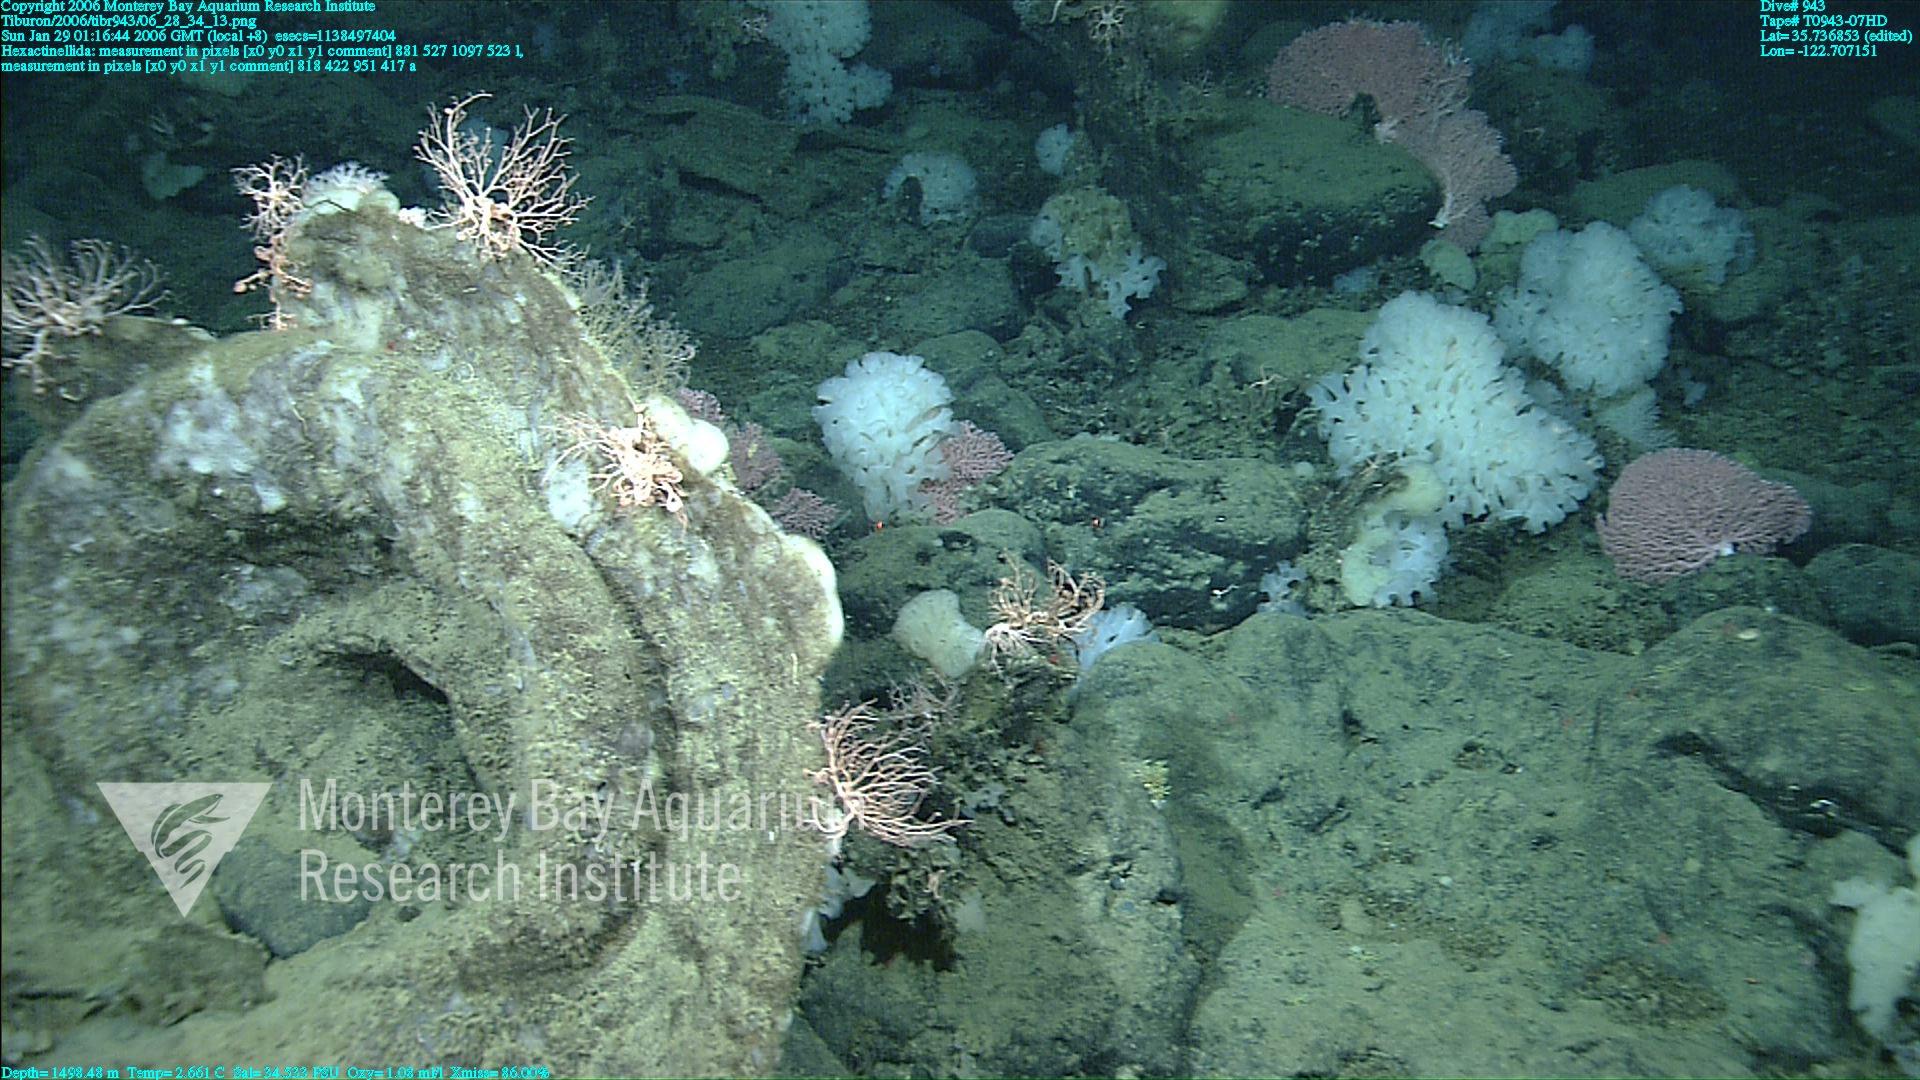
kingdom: Animalia
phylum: Porifera
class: Hexactinellida
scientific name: Hexactinellida
